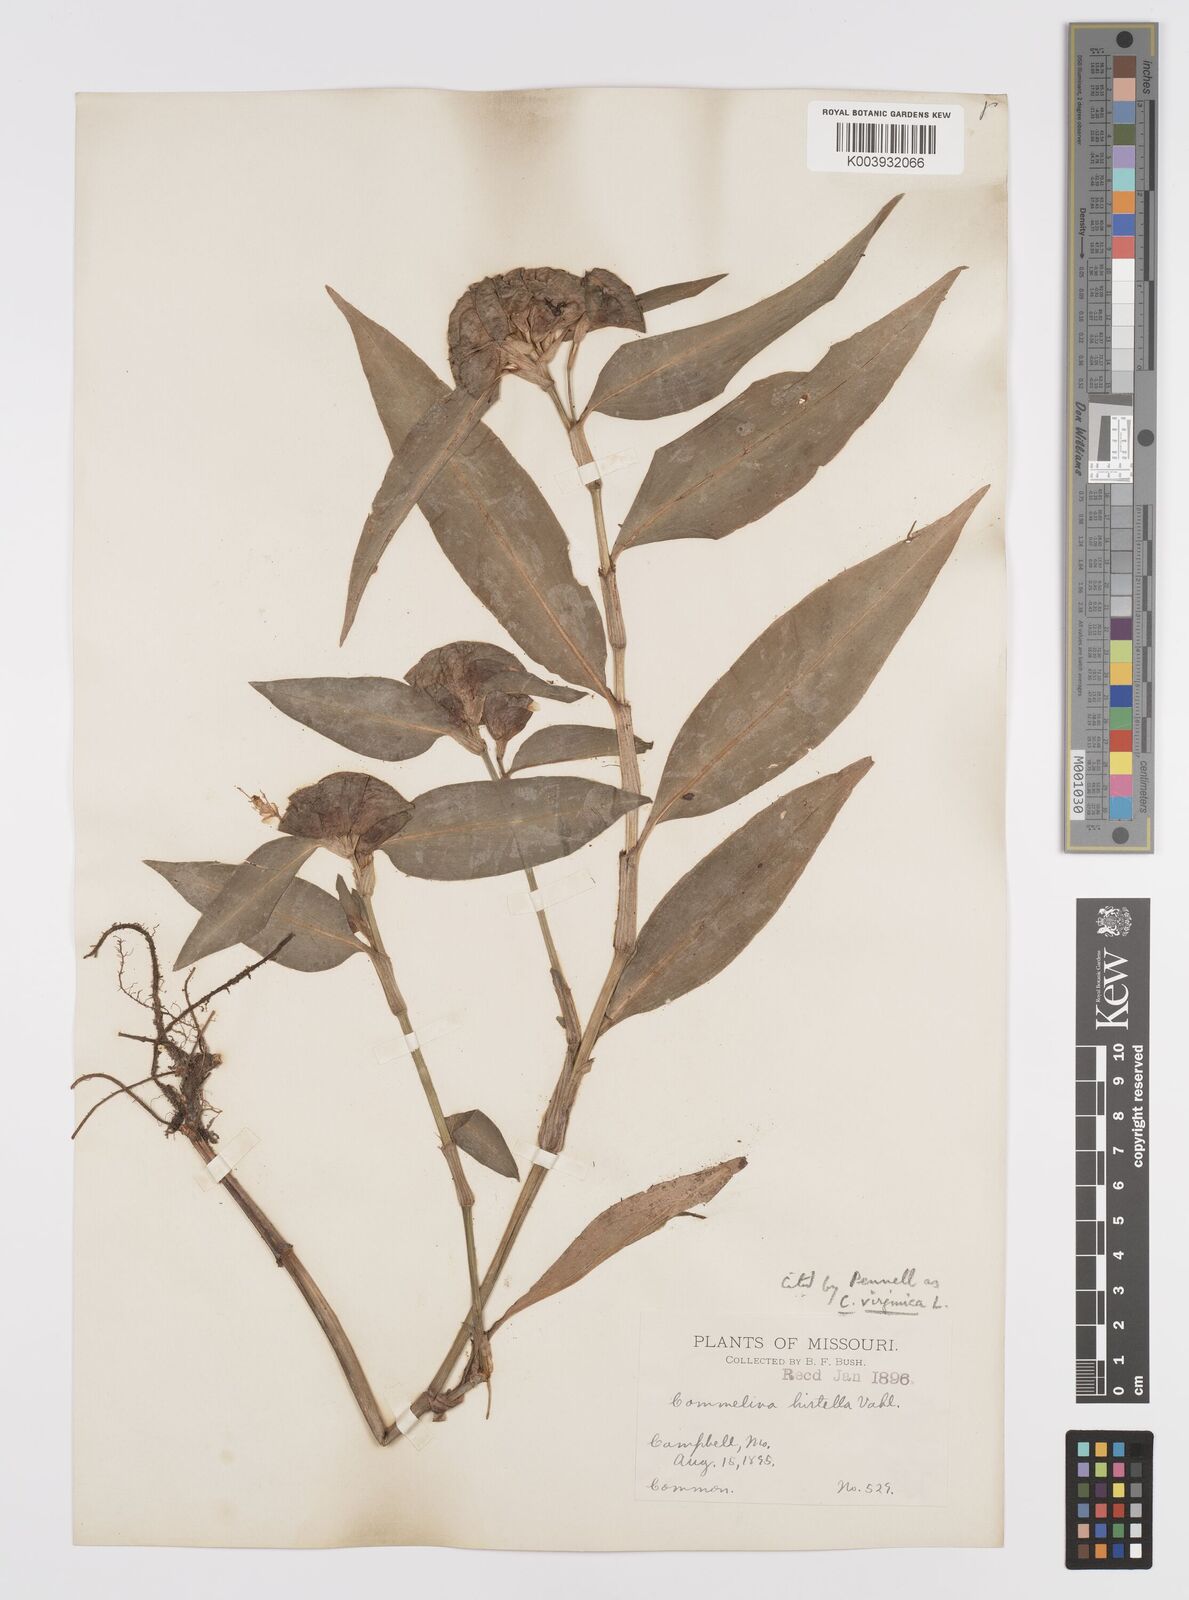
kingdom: Plantae
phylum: Tracheophyta
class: Liliopsida
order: Commelinales
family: Commelinaceae
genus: Commelina
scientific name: Commelina virginica
